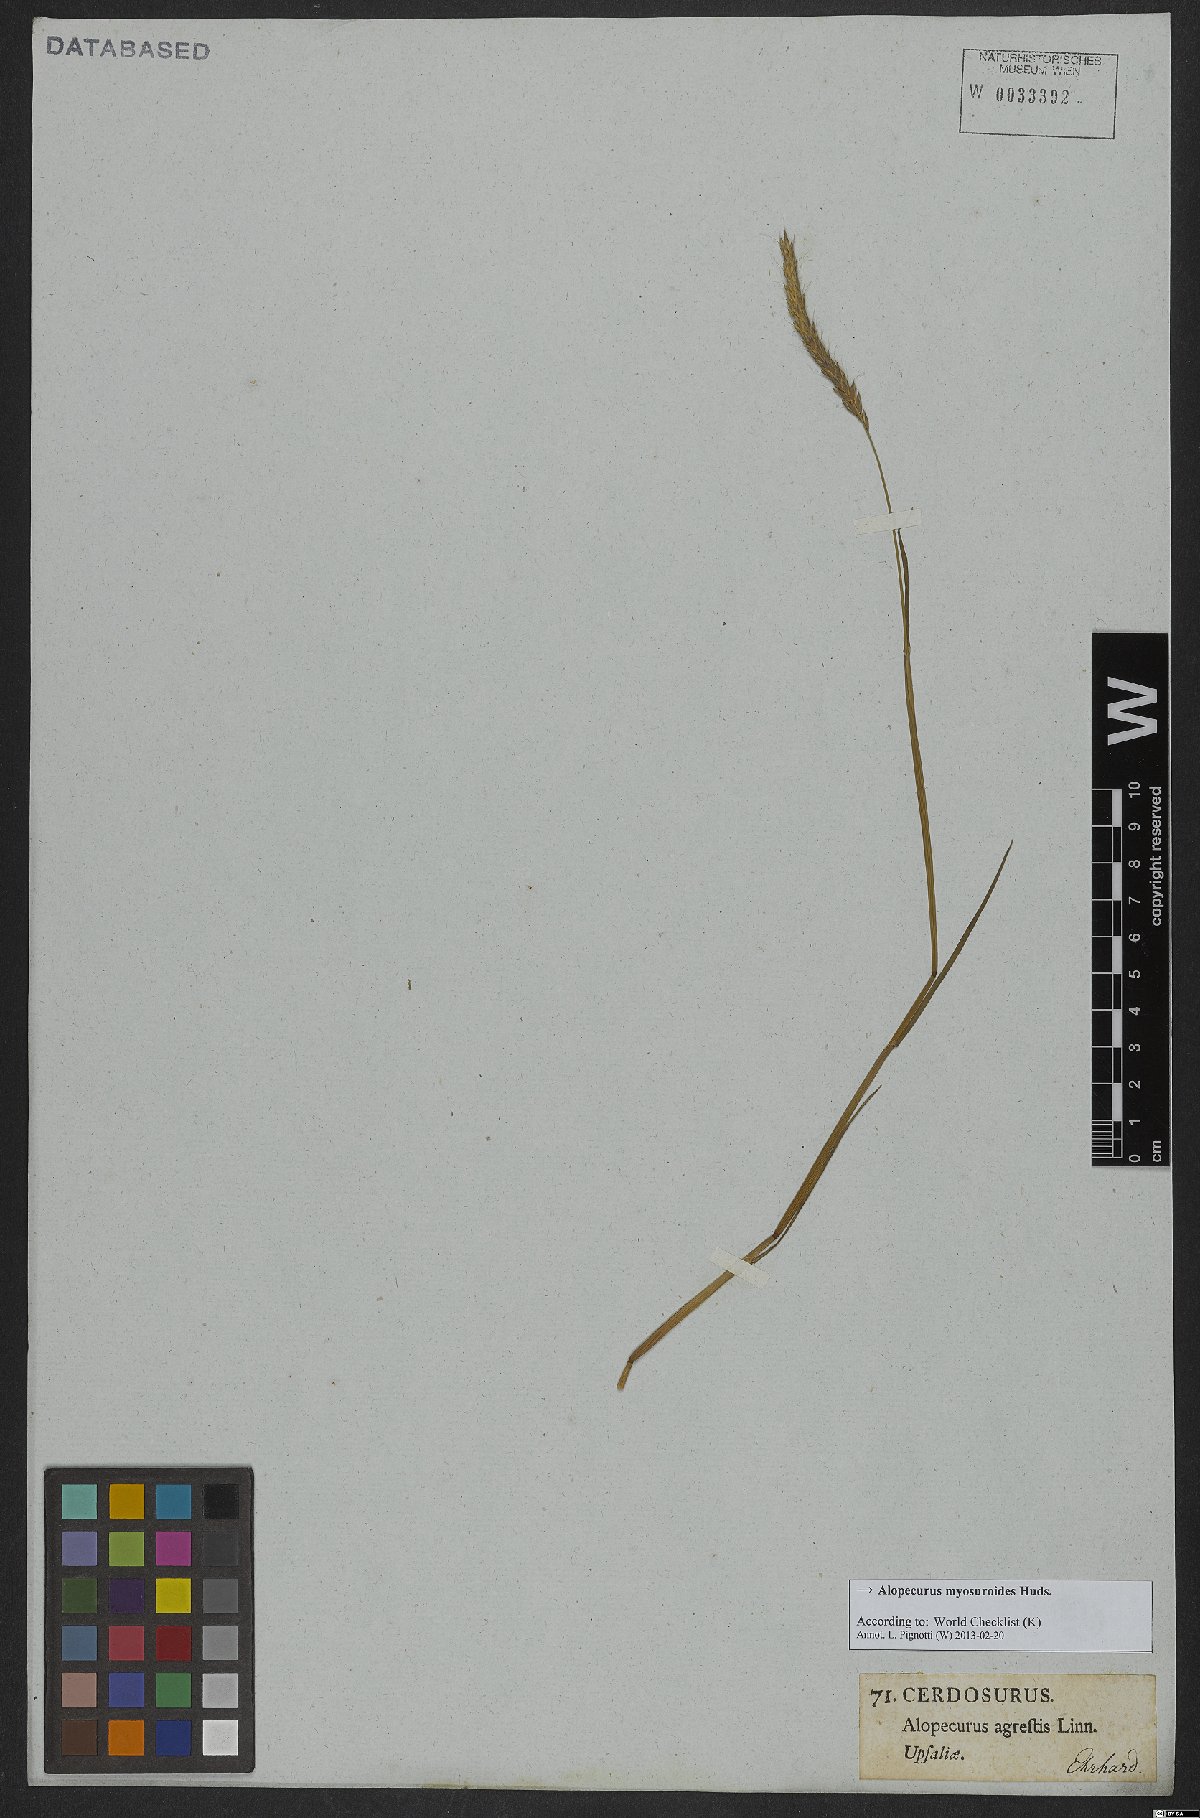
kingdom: Plantae
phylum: Tracheophyta
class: Liliopsida
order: Poales
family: Poaceae
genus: Alopecurus
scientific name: Alopecurus myosuroides
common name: Black-grass
